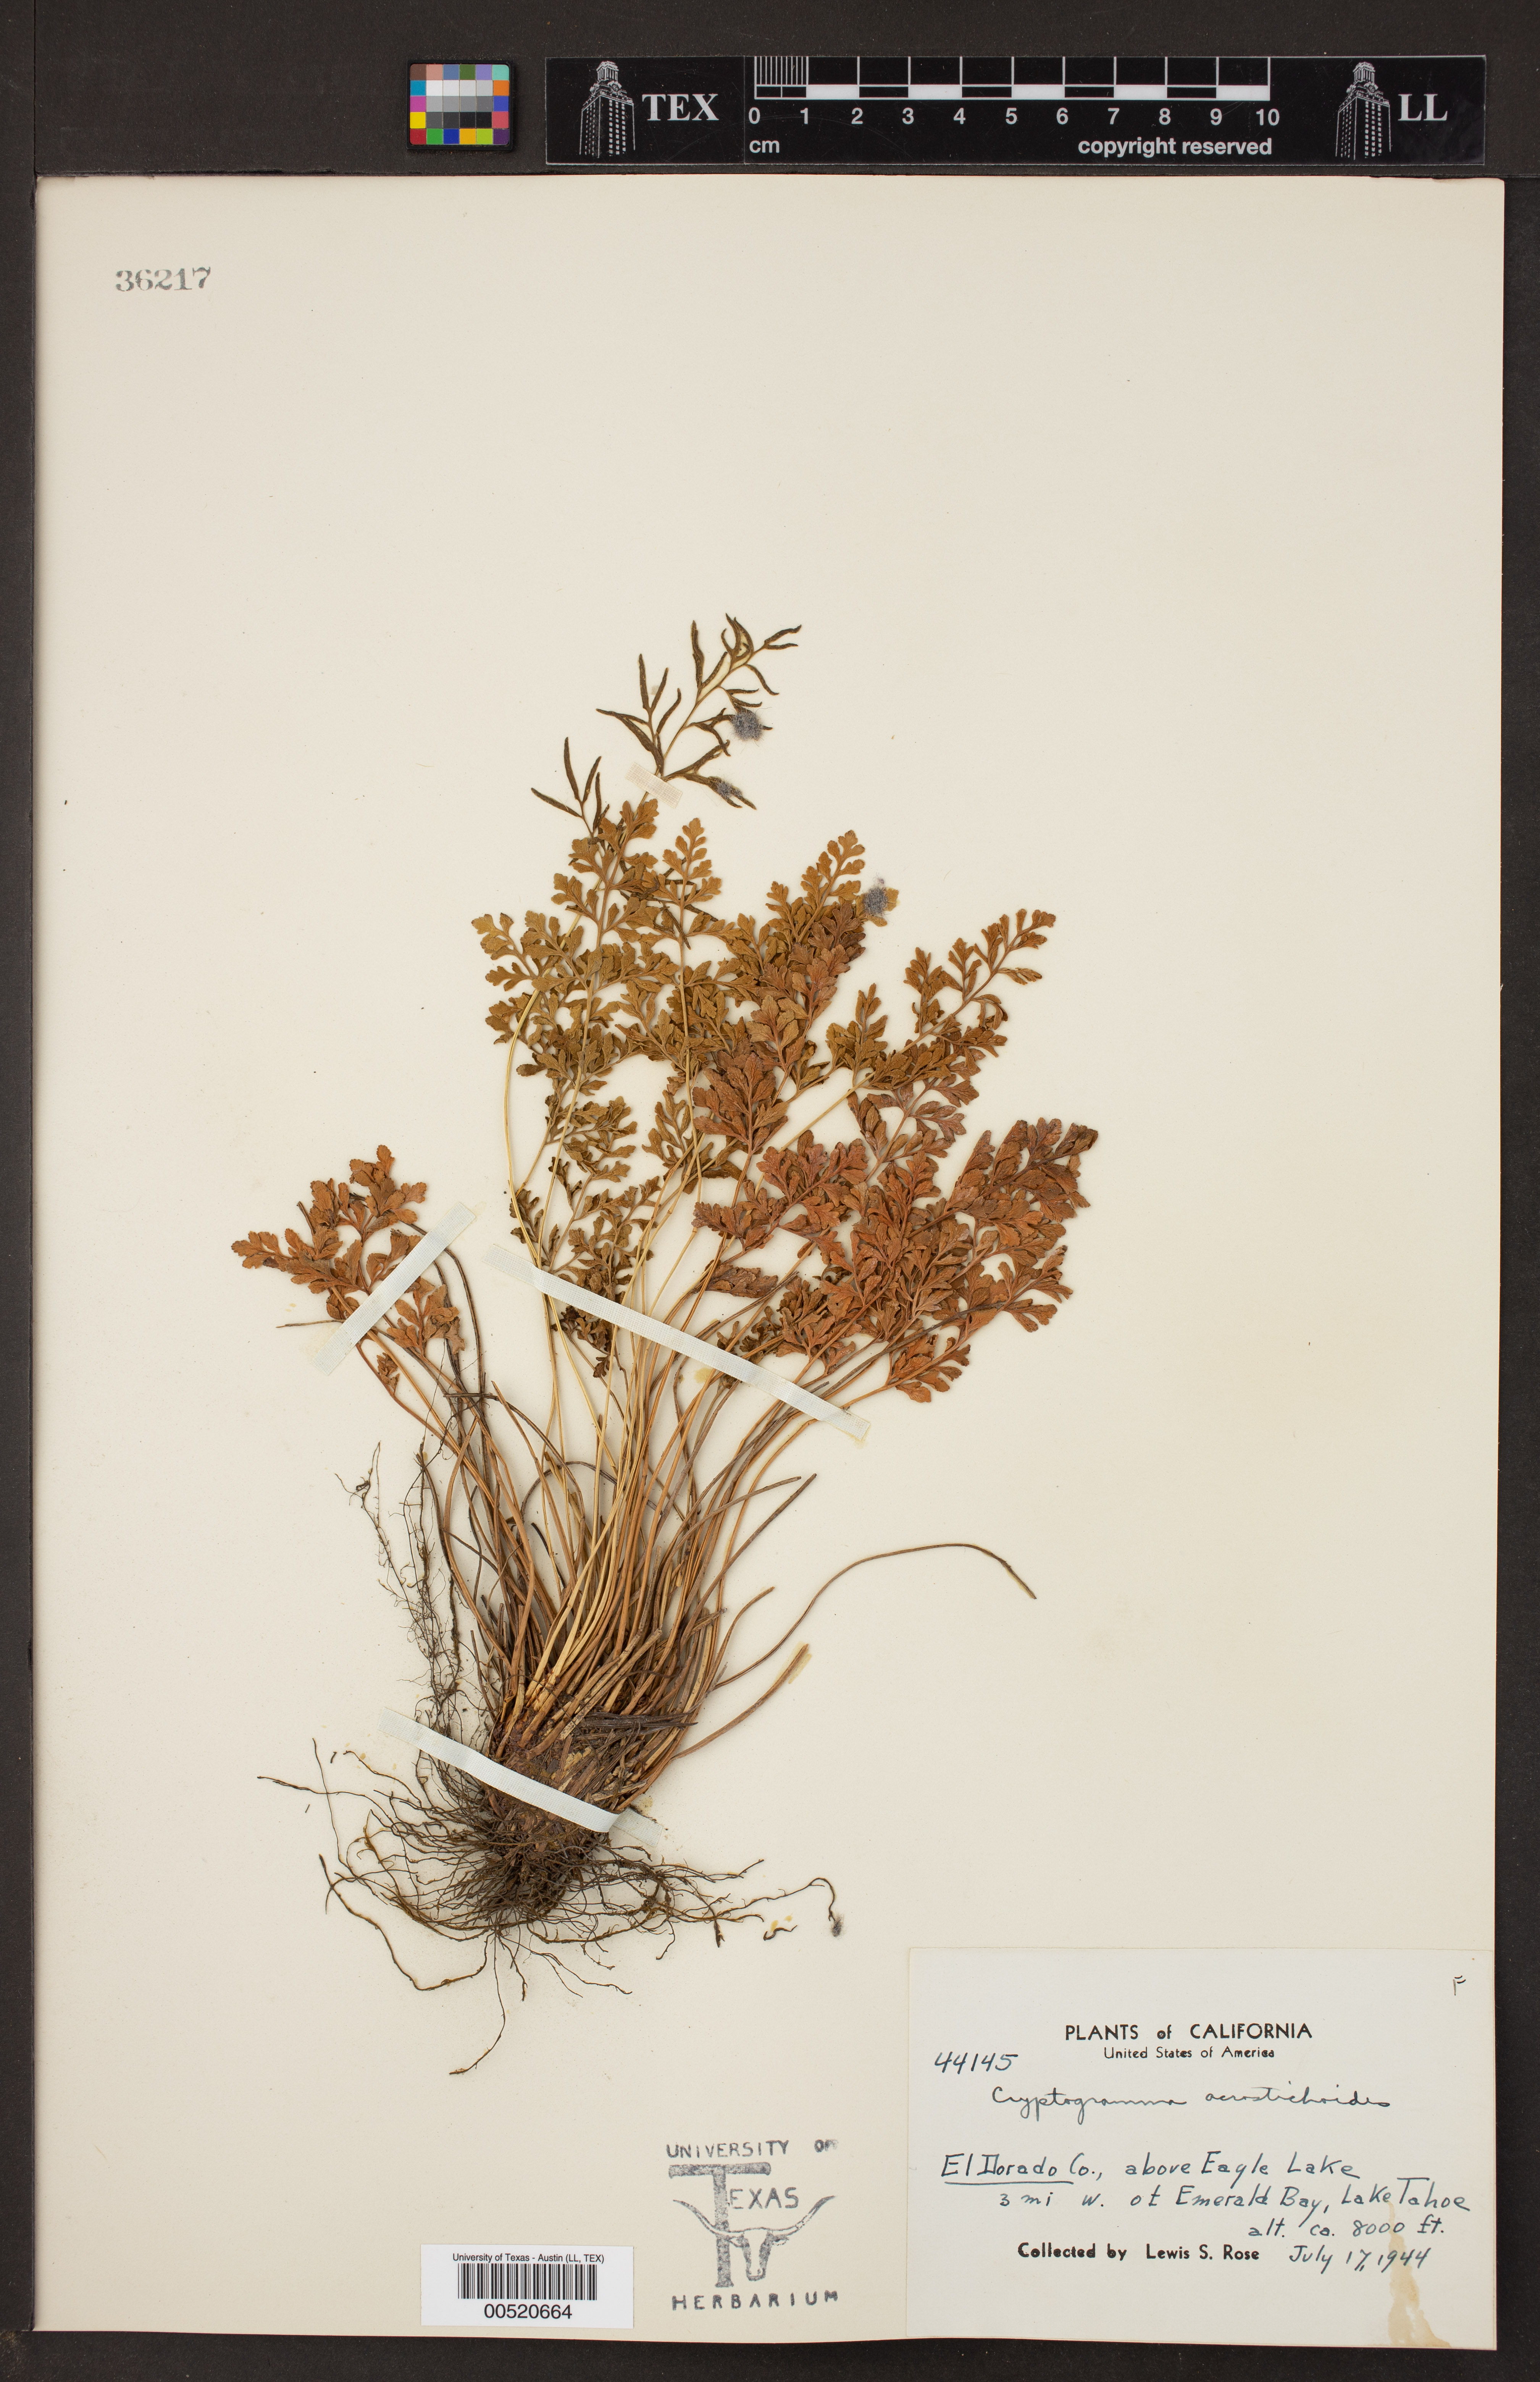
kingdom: Plantae
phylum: Tracheophyta
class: Polypodiopsida
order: Polypodiales
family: Pteridaceae
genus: Cryptogramma
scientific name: Cryptogramma acrostichoides
